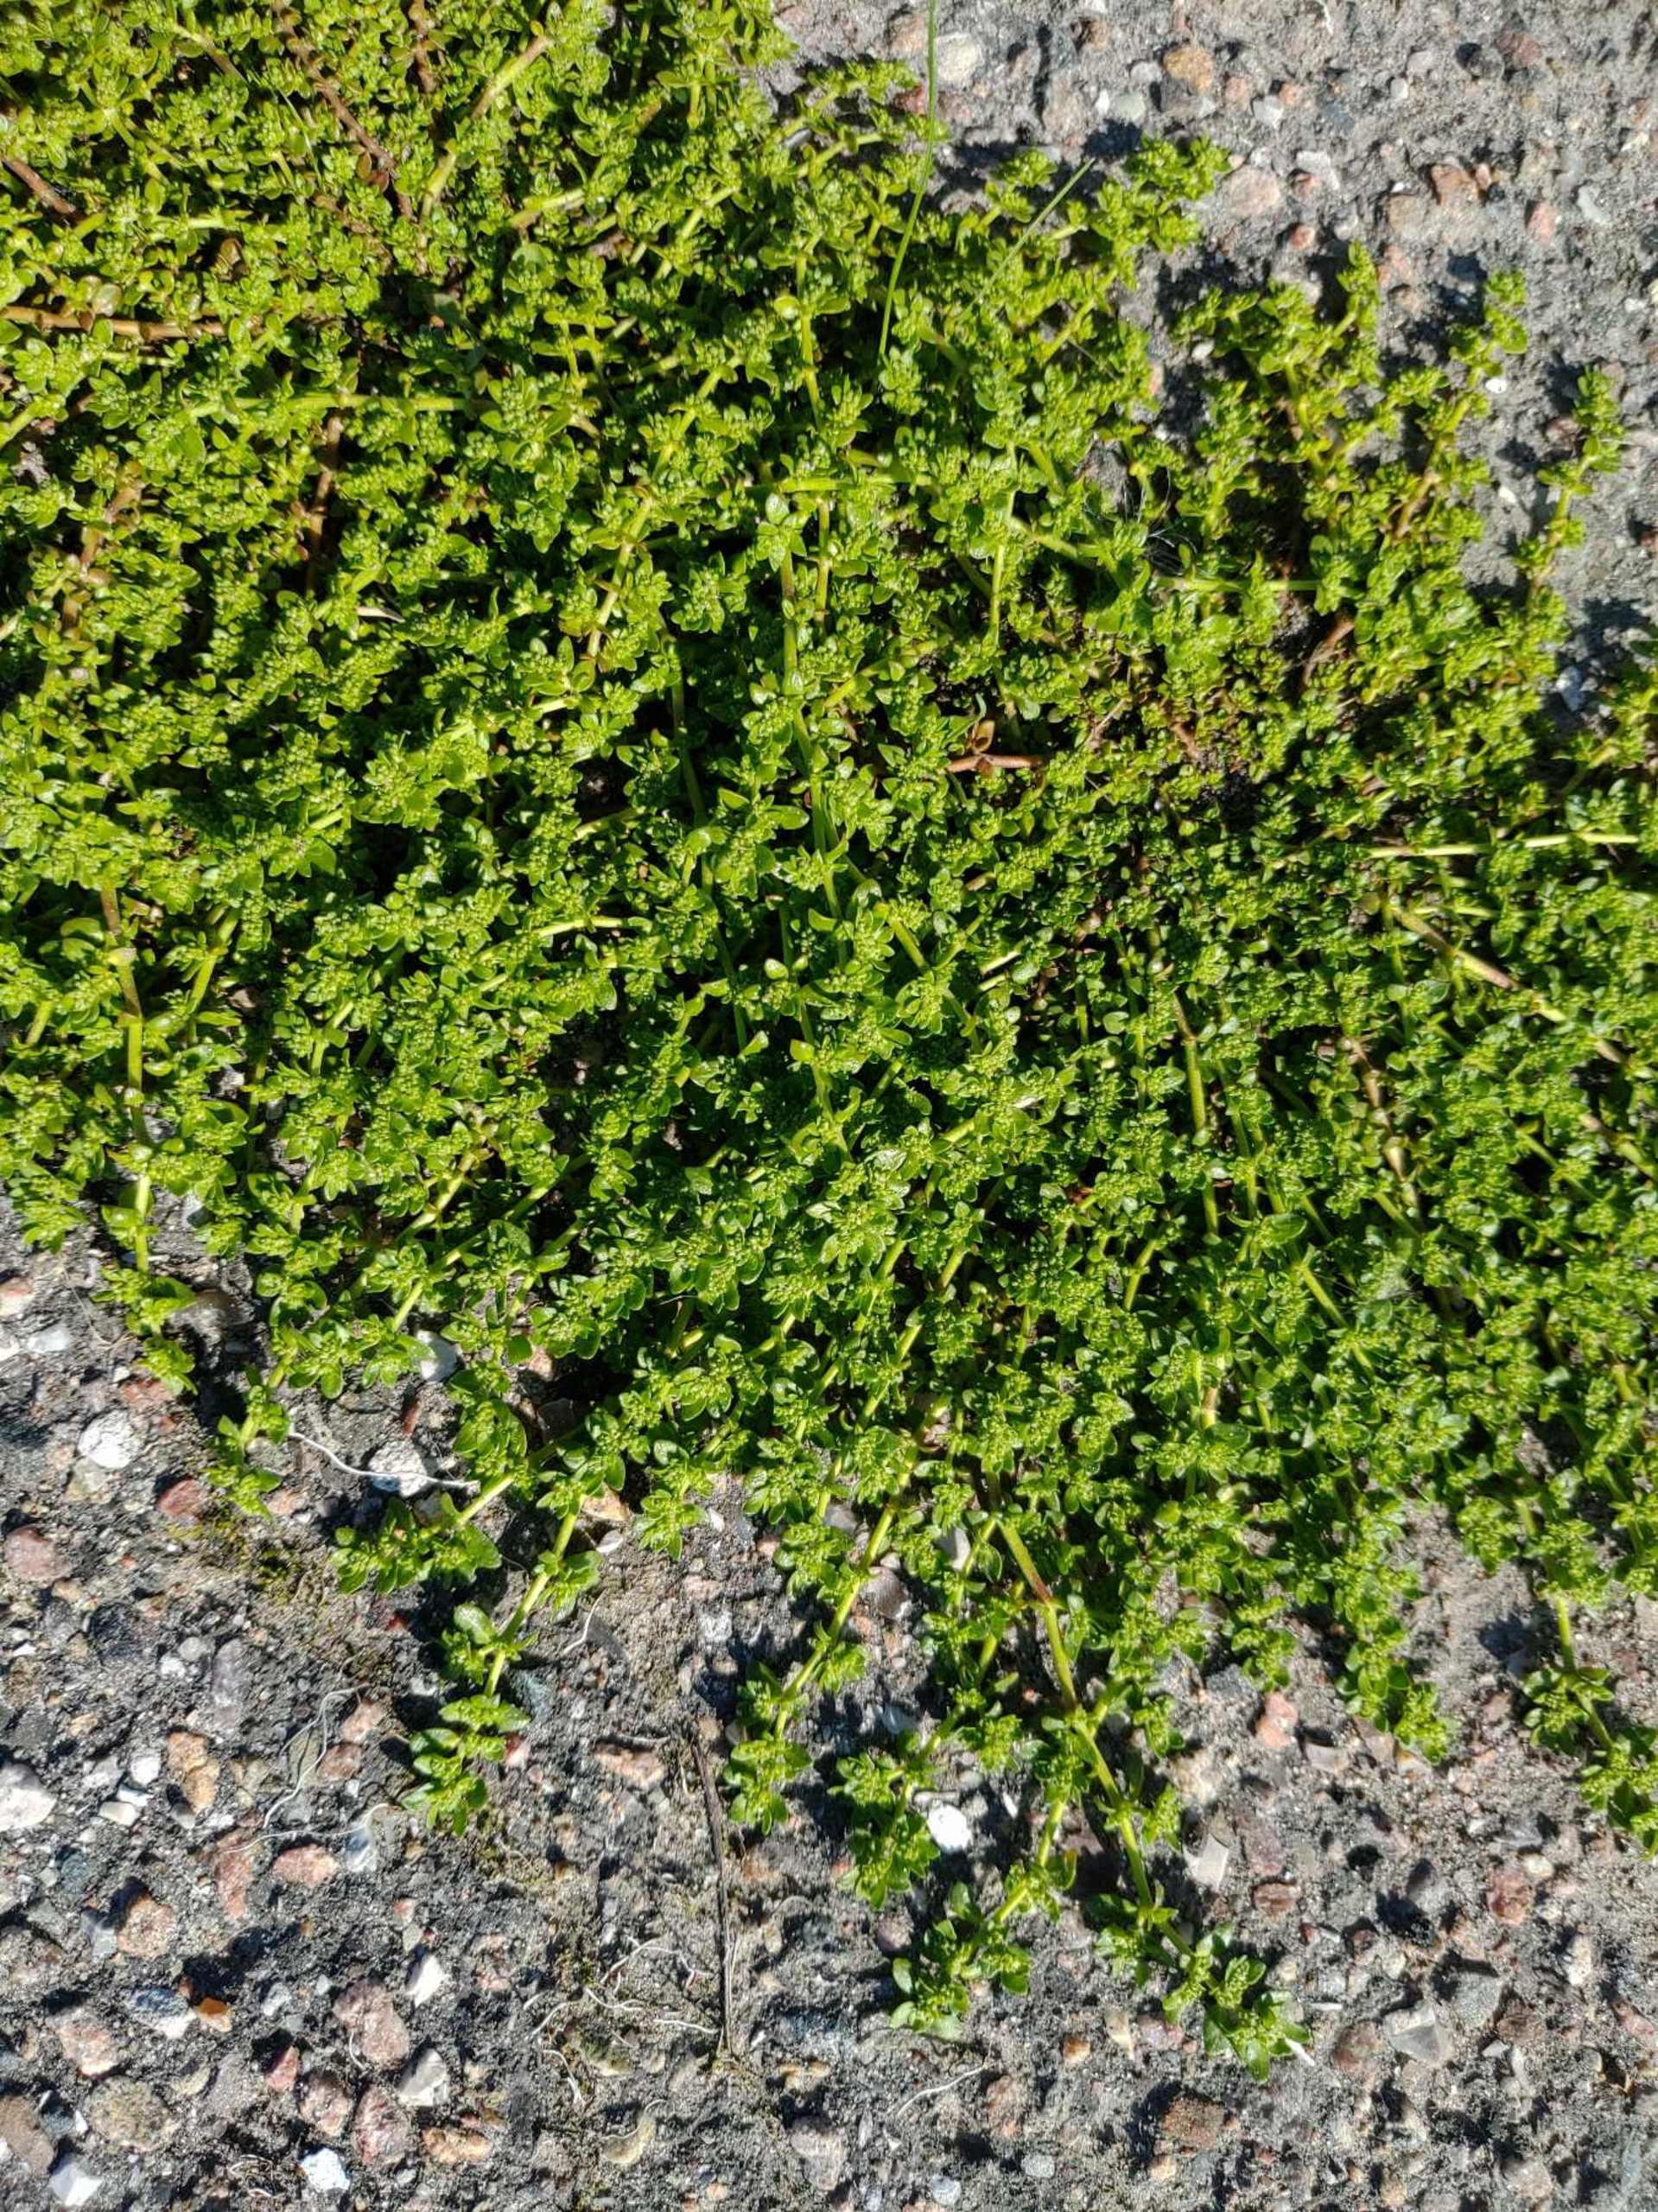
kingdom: Plantae
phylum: Tracheophyta
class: Magnoliopsida
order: Caryophyllales
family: Caryophyllaceae
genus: Herniaria
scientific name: Herniaria glabra
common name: Brudurt
